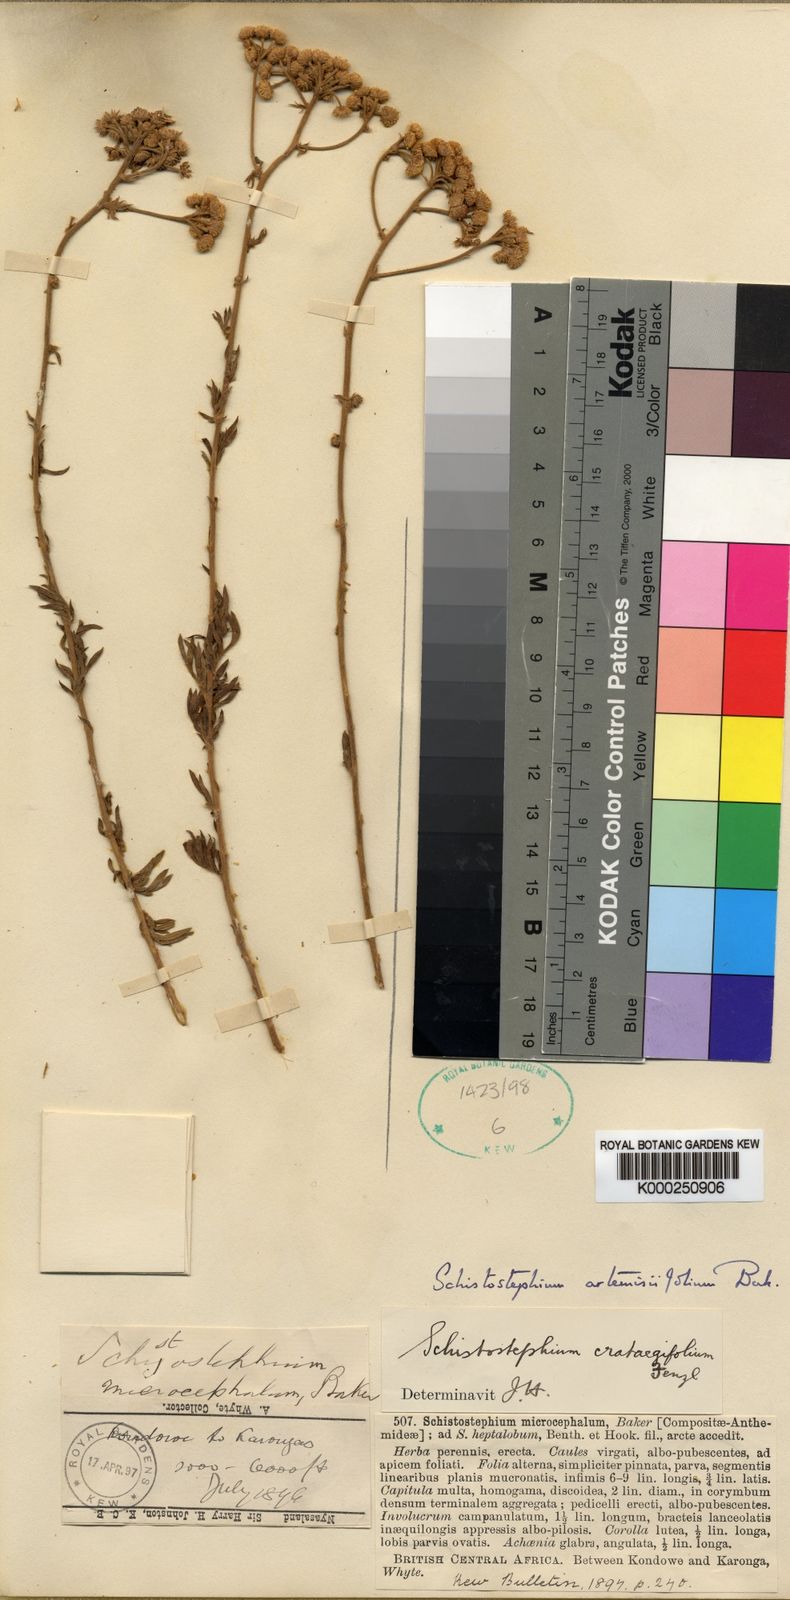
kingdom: Plantae
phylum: Tracheophyta
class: Magnoliopsida
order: Asterales
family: Asteraceae
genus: Schistostephium
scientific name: Schistostephium crataegifolium
